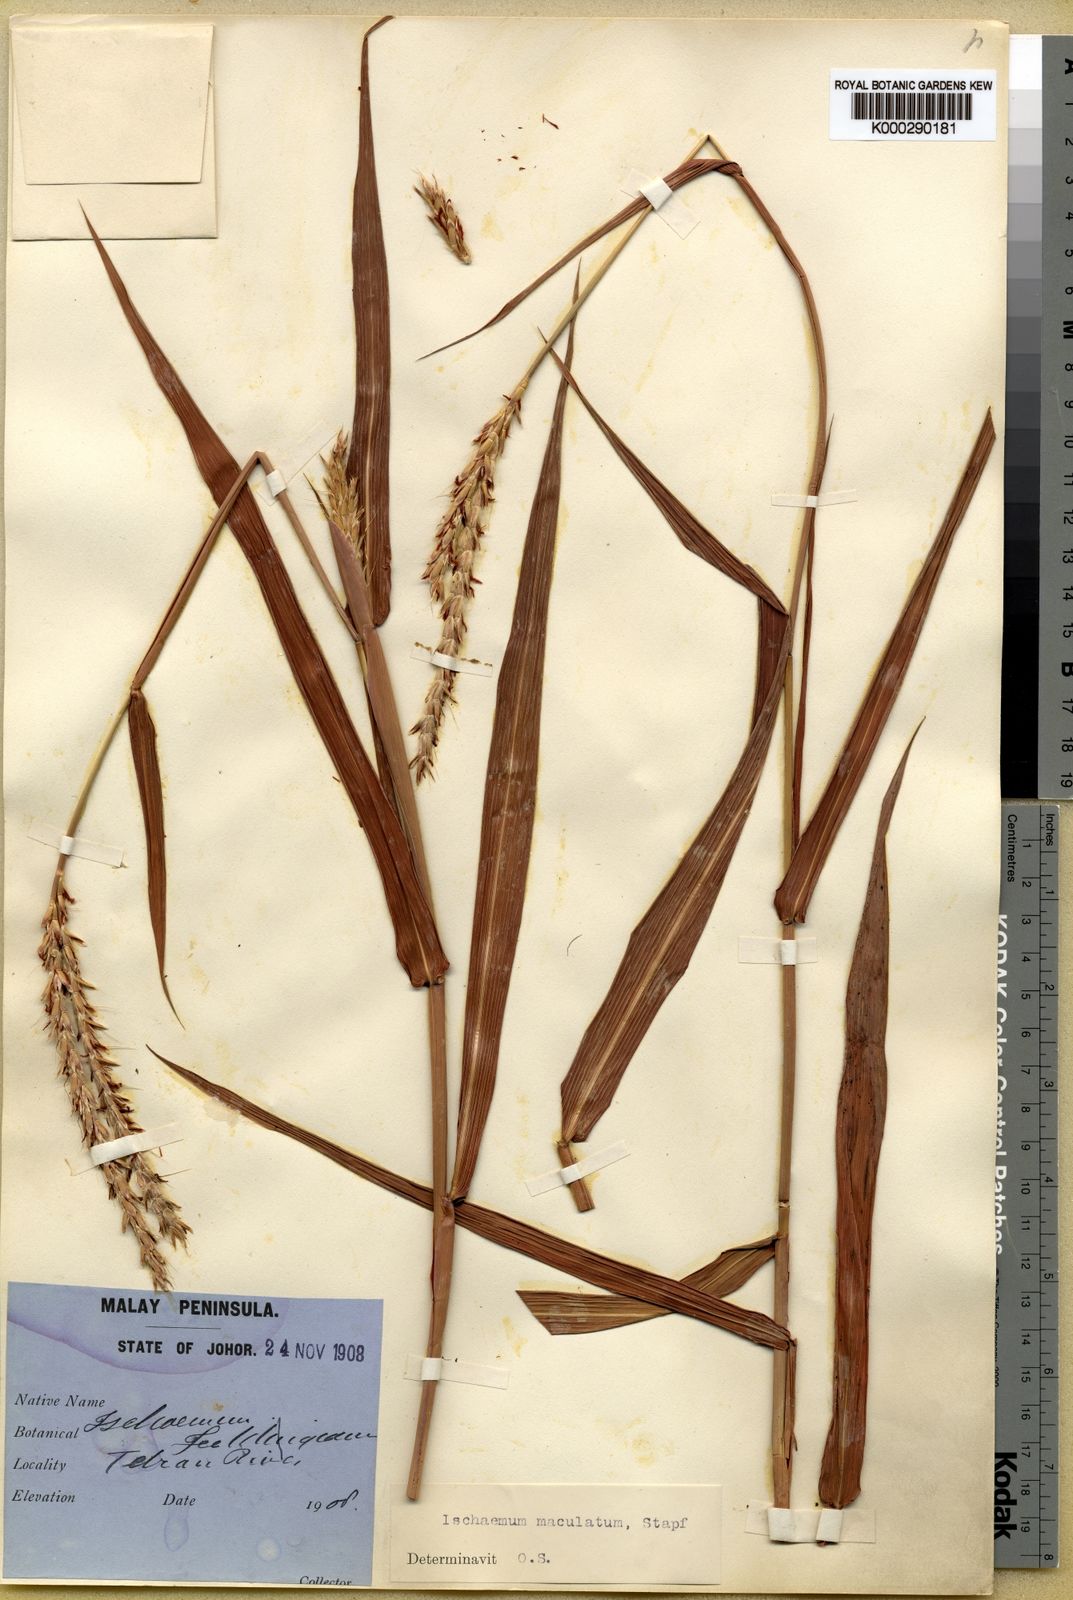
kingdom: Plantae
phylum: Tracheophyta
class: Liliopsida
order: Poales
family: Poaceae
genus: Ischaemum
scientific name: Ischaemum feildingianum
